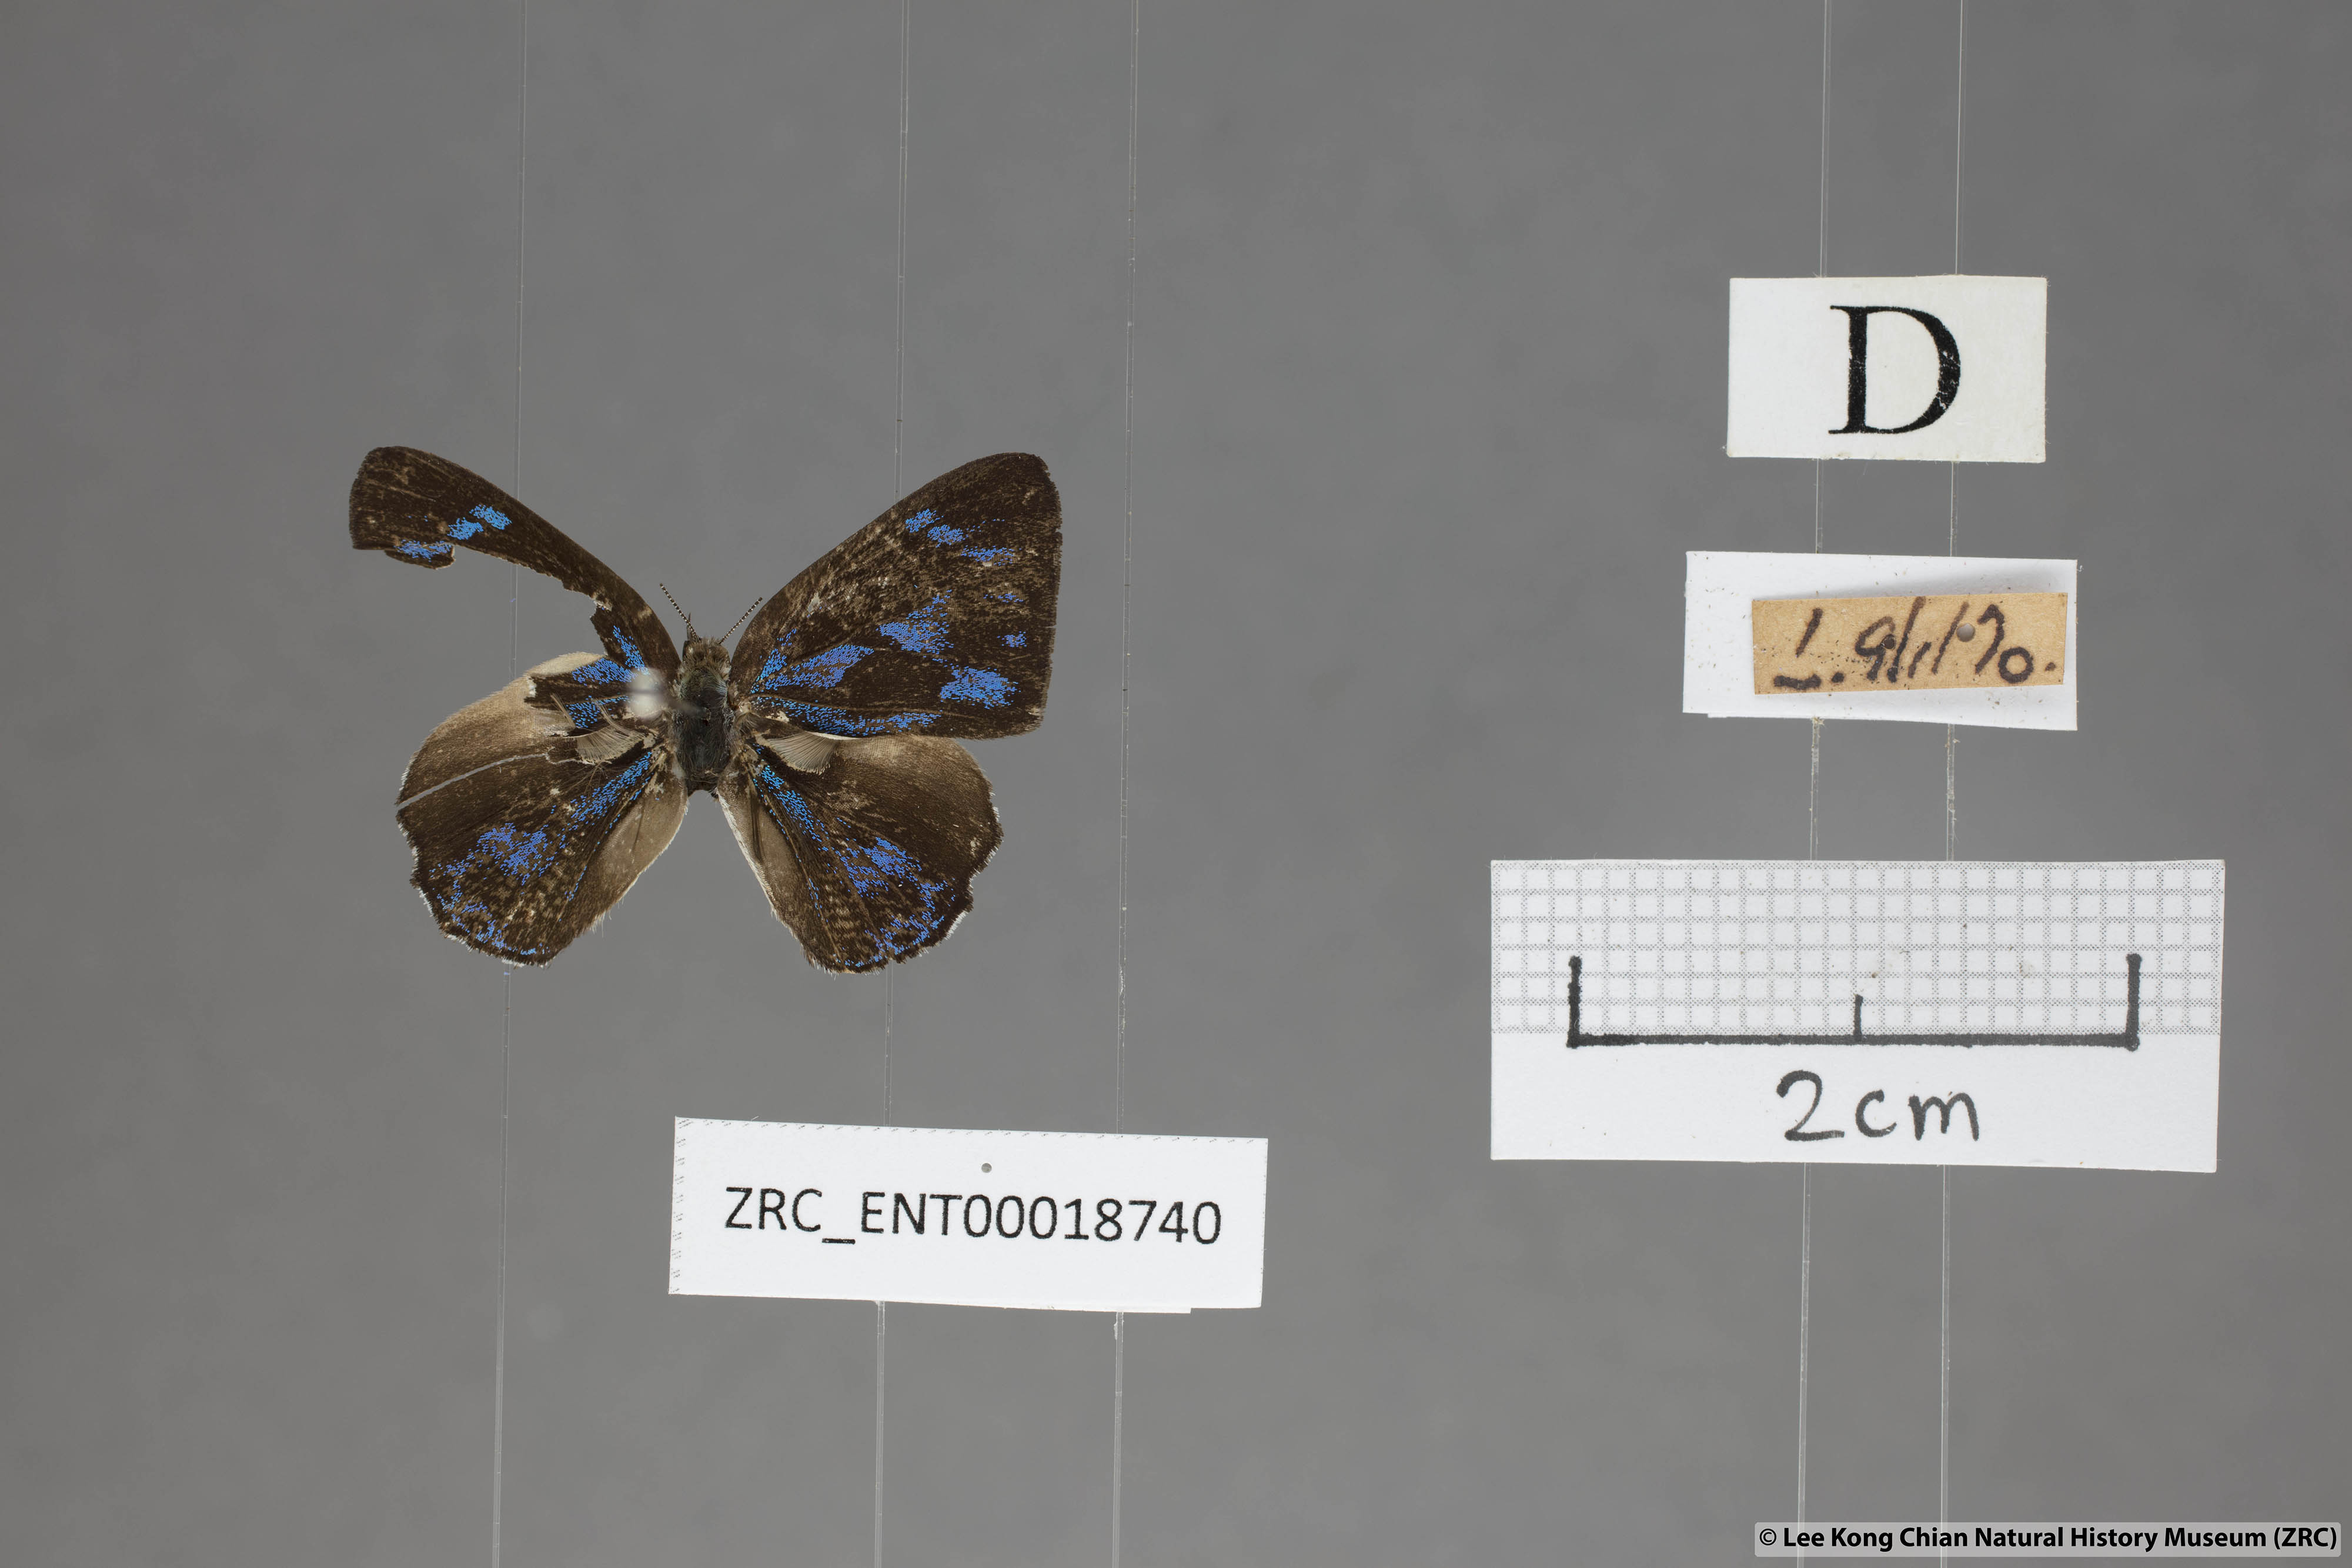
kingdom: Animalia
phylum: Arthropoda
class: Insecta
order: Lepidoptera
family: Lycaenidae
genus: Poritia
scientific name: Poritia erycinoides
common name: Blue gem
